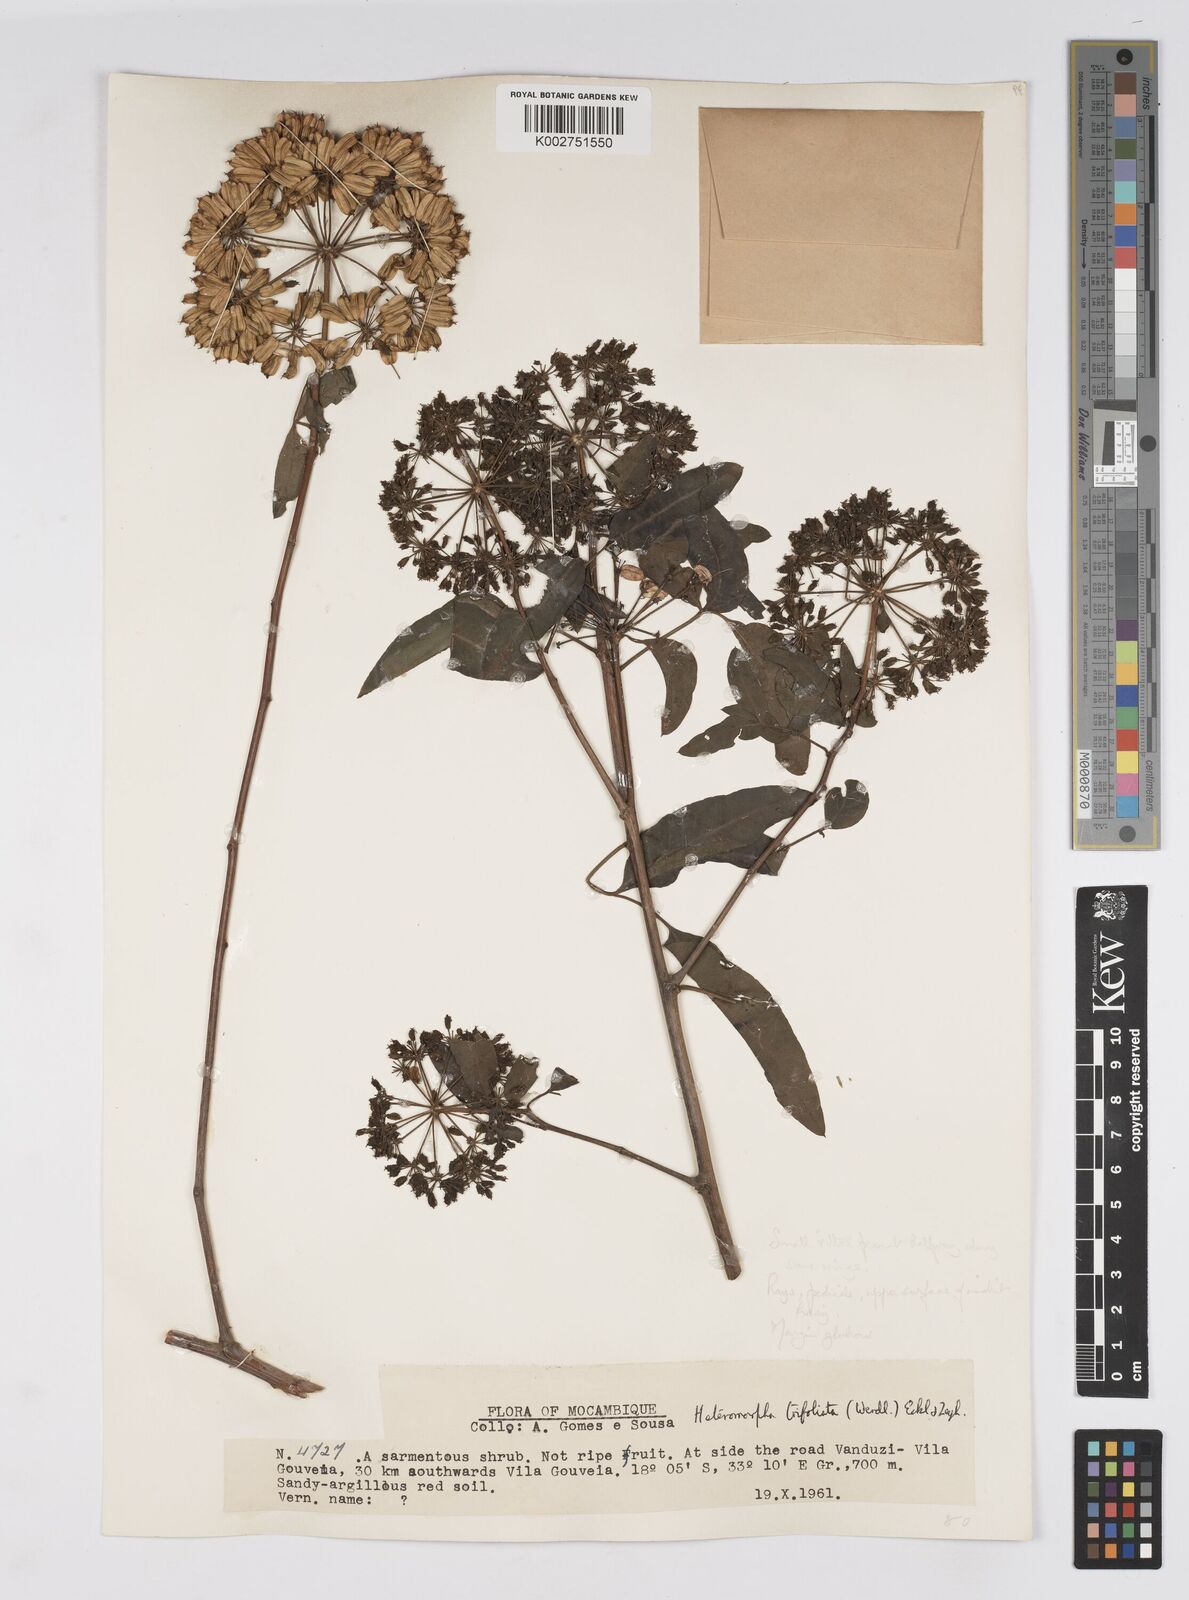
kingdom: Plantae
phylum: Tracheophyta
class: Magnoliopsida
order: Apiales
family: Apiaceae
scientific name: Apiaceae
